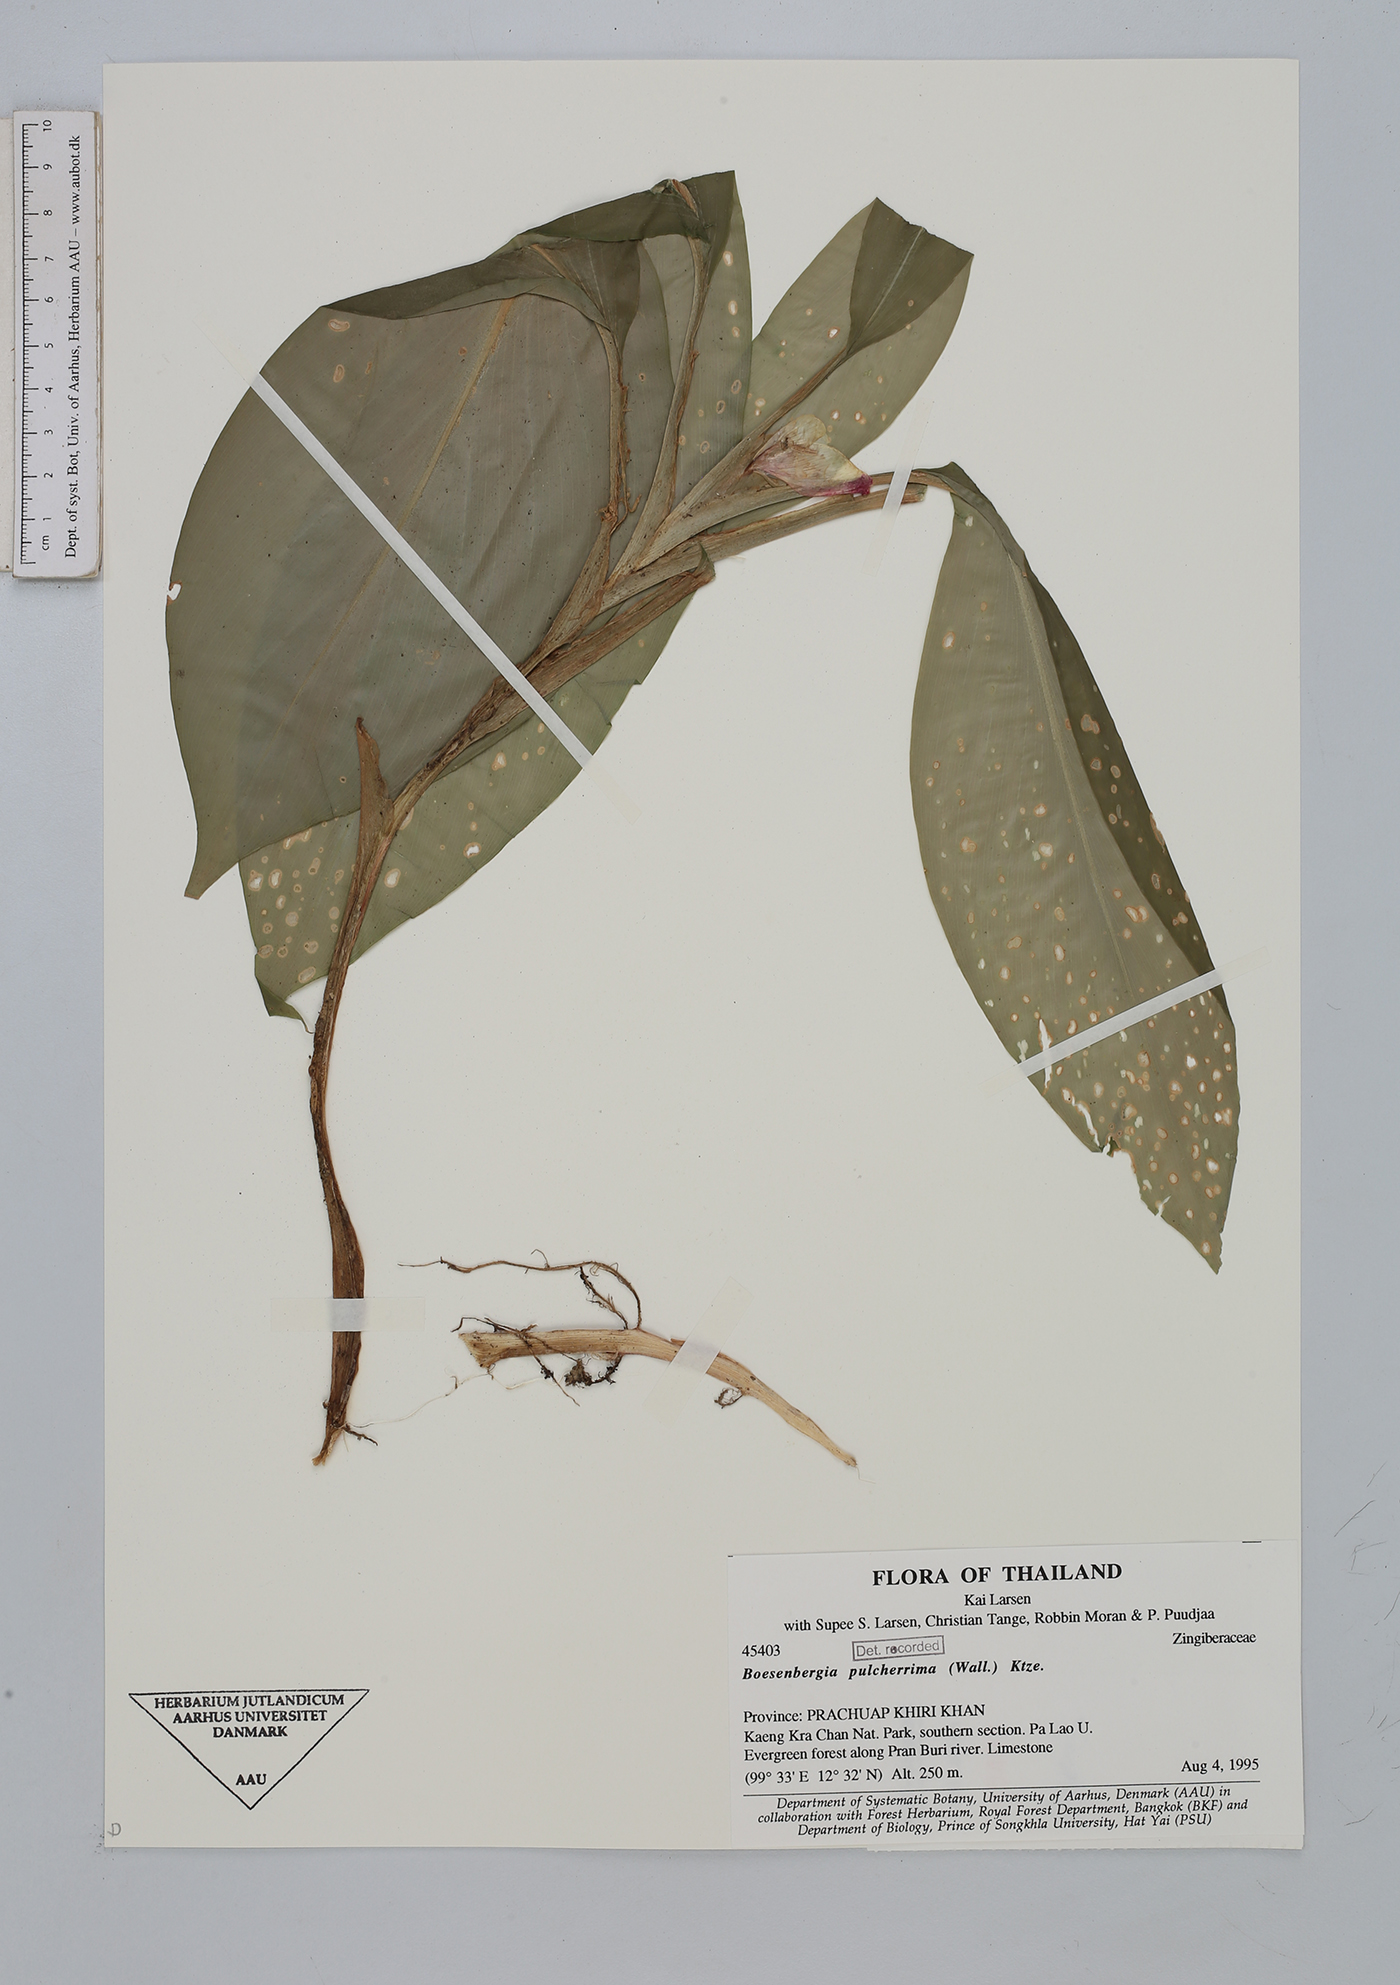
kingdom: Plantae
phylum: Tracheophyta
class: Liliopsida
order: Zingiberales
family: Zingiberaceae
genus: Boesenbergia
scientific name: Boesenbergia pulcherrima
